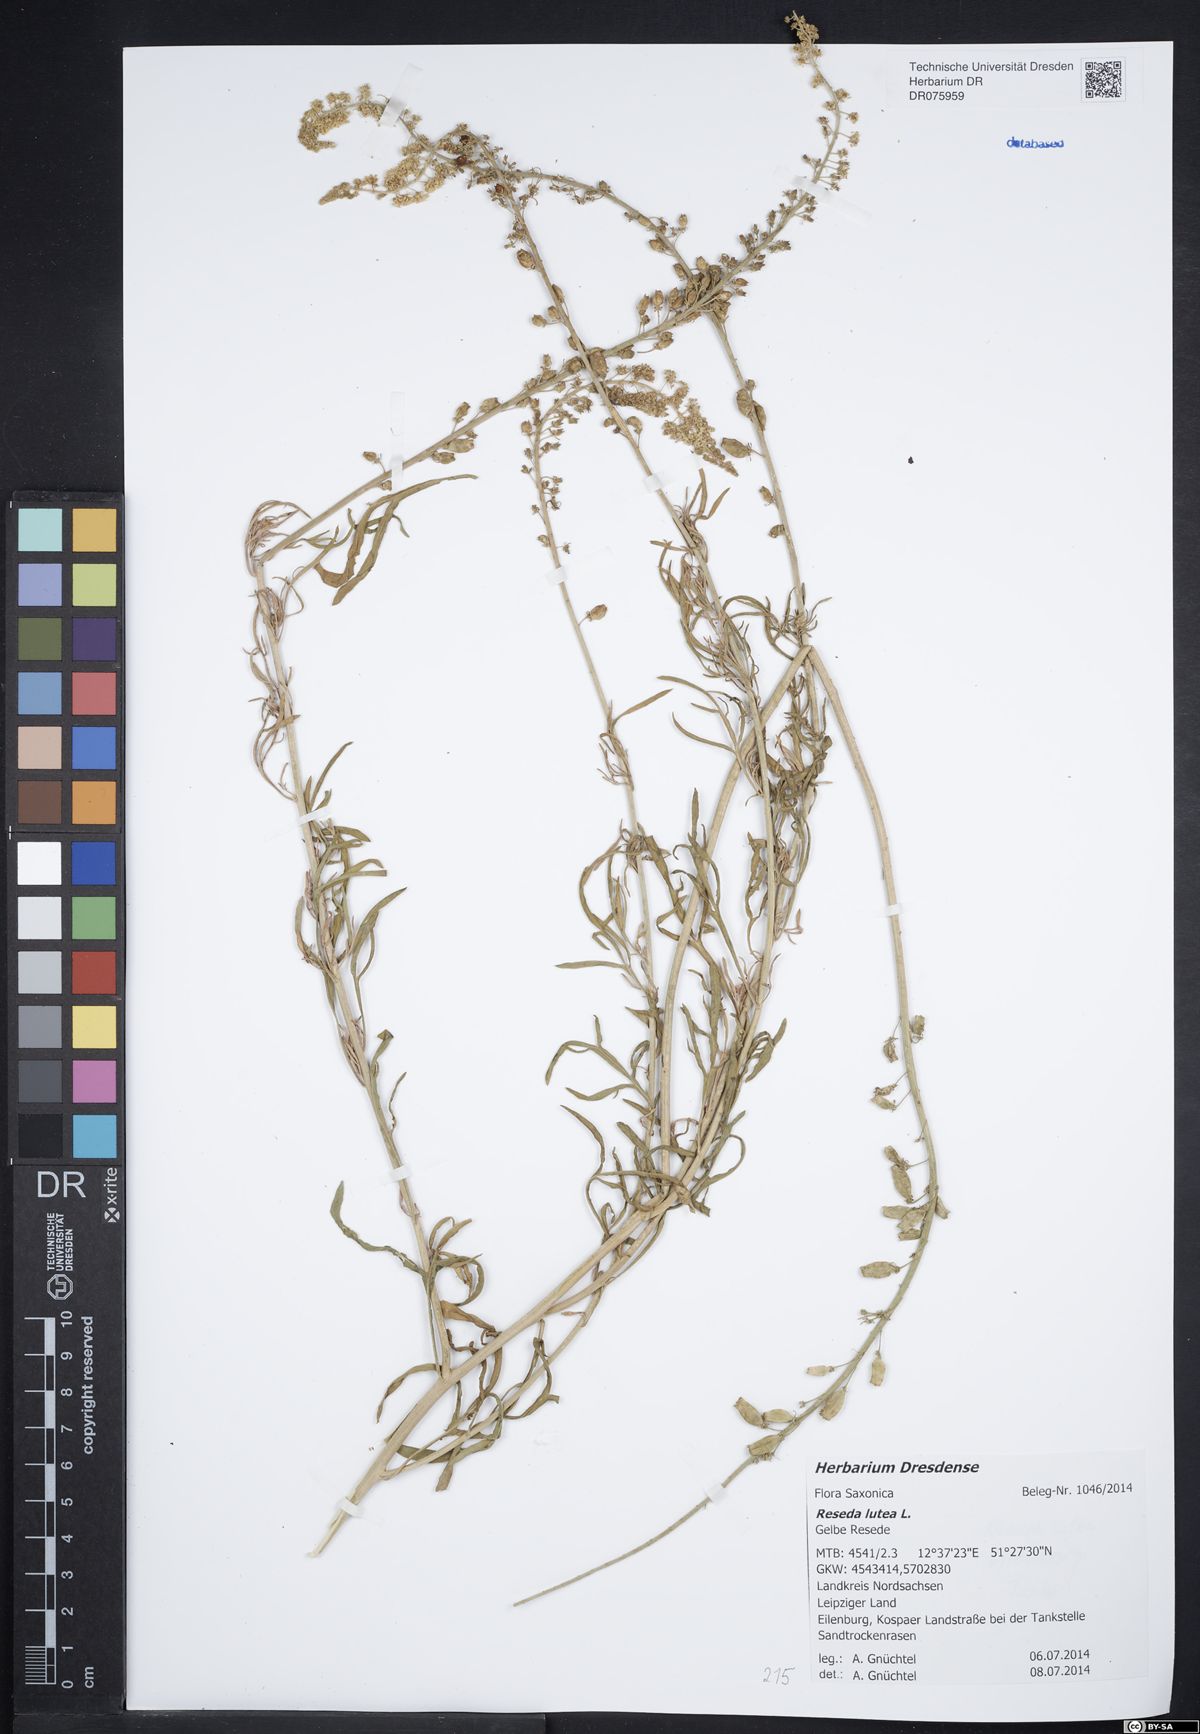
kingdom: Plantae
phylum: Tracheophyta
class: Magnoliopsida
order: Brassicales
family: Resedaceae
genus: Reseda
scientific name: Reseda lutea
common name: Wild mignonette
